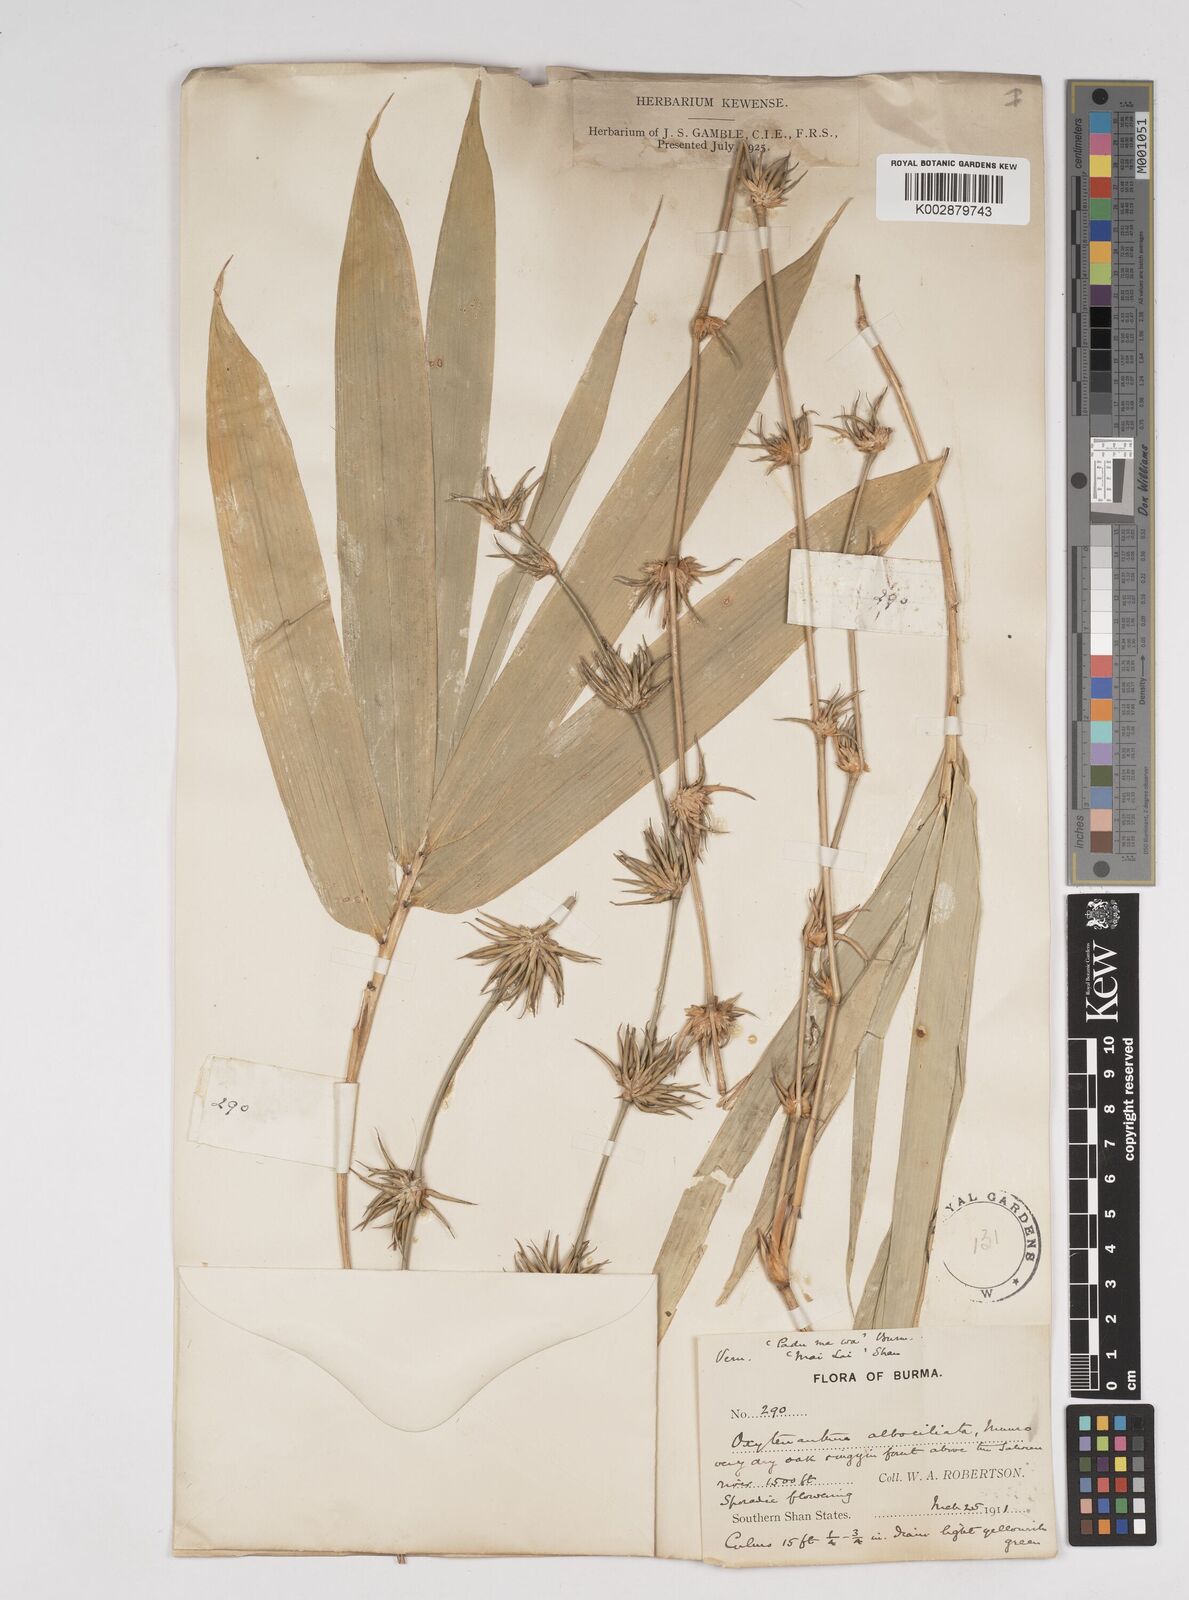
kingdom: Plantae
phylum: Tracheophyta
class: Liliopsida
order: Poales
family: Poaceae
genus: Gigantochloa
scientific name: Gigantochloa albociliata
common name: White-fringe gigantochloa
